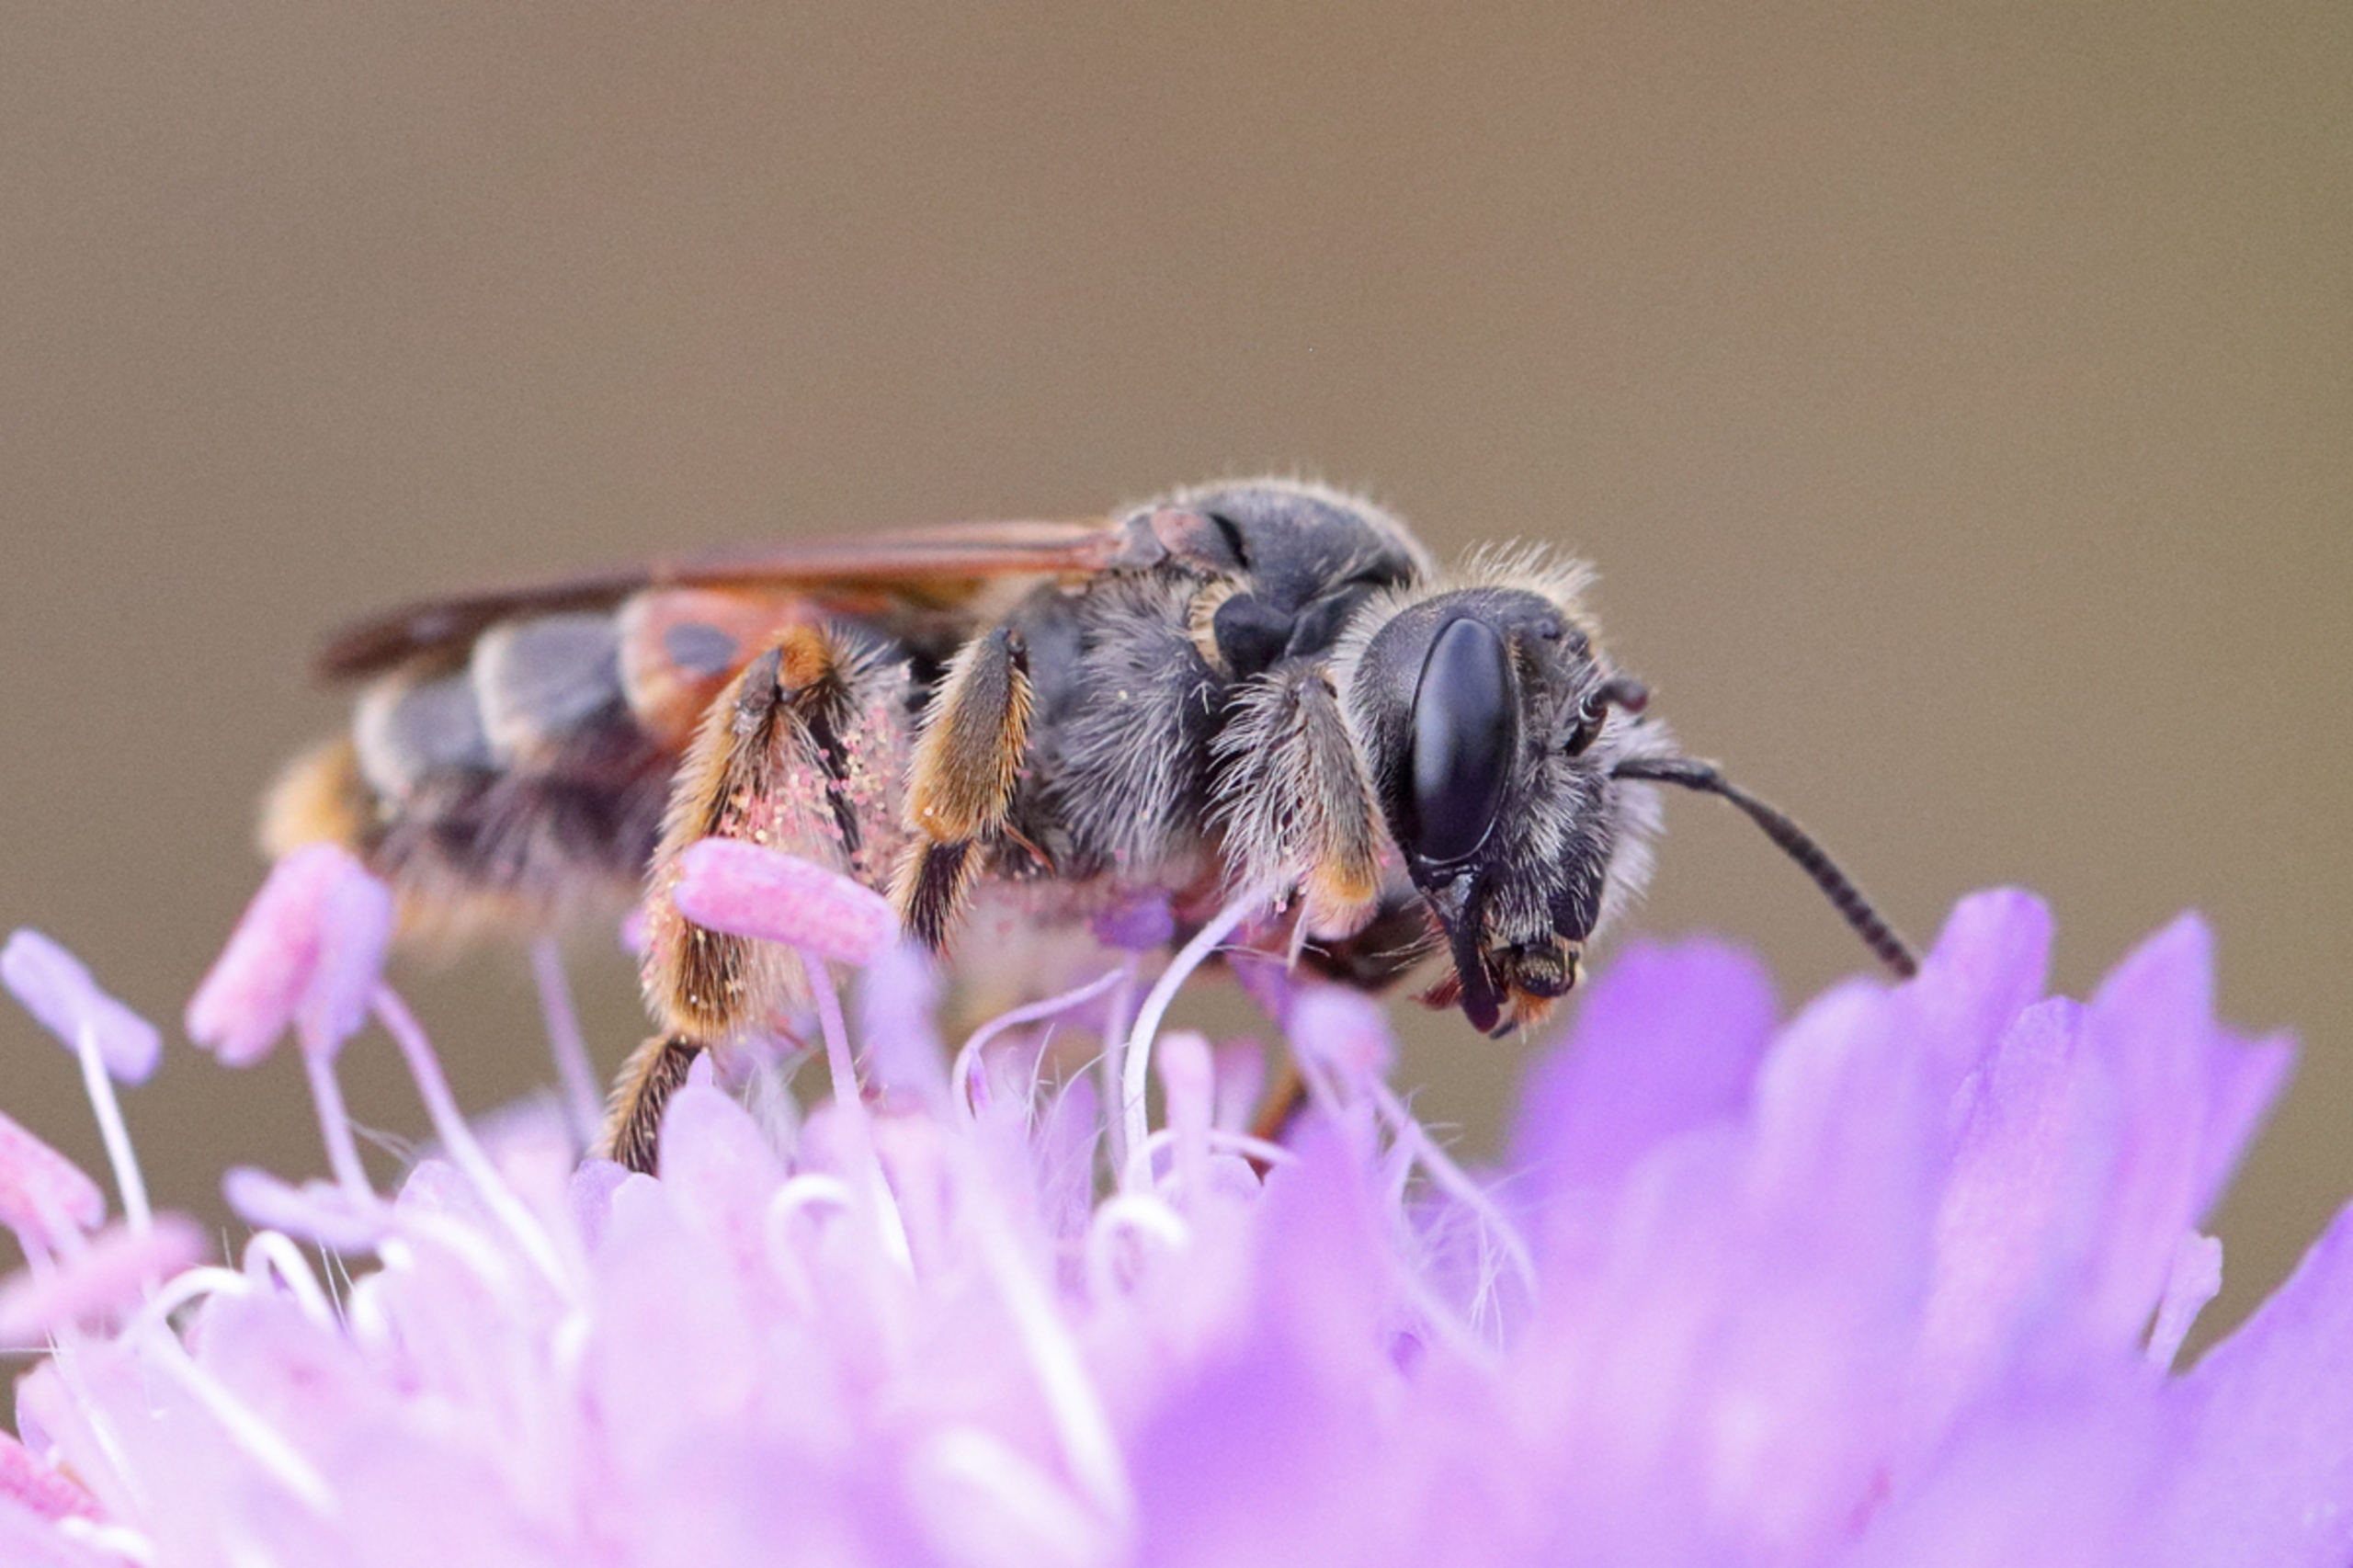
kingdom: Animalia
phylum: Arthropoda
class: Insecta
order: Hymenoptera
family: Andrenidae
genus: Andrena
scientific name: Andrena hattorfiana
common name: Blåhatjordbi
